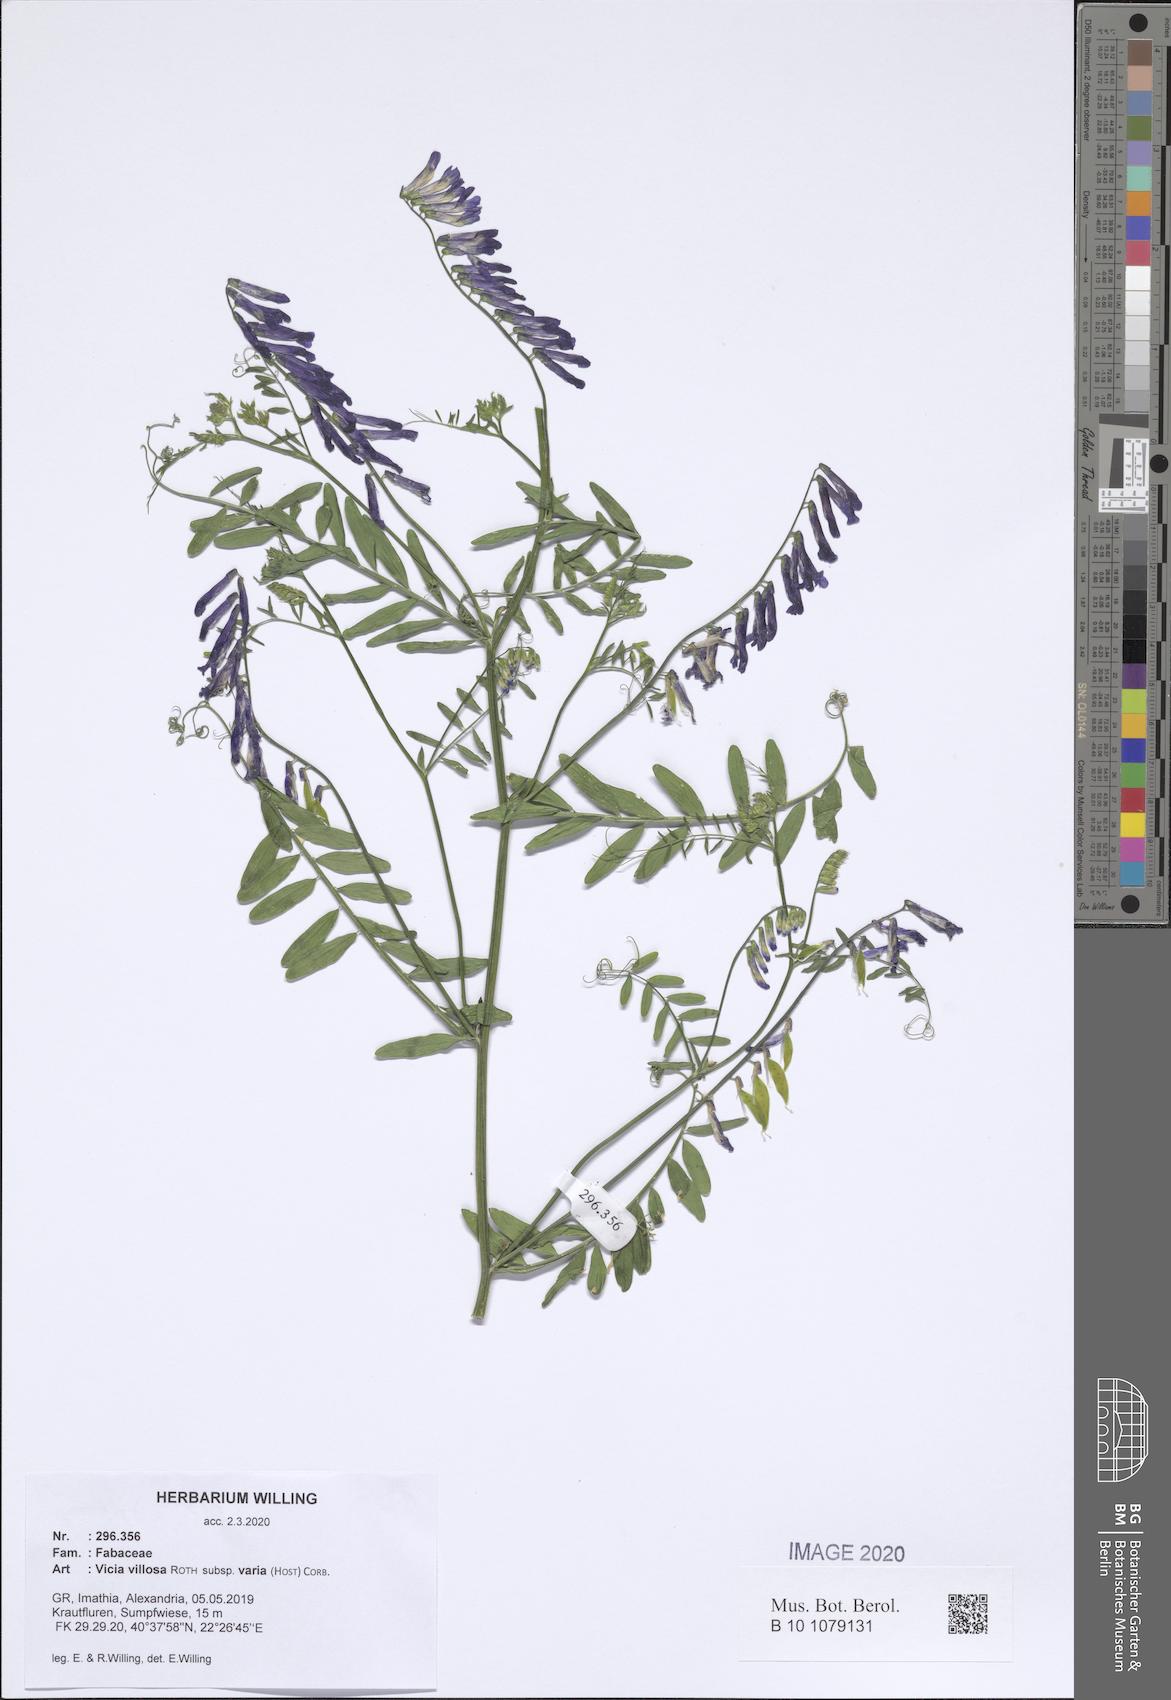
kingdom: Plantae
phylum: Tracheophyta
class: Magnoliopsida
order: Fabales
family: Fabaceae
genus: Vicia
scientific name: Vicia villosa
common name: Fodder vetch
